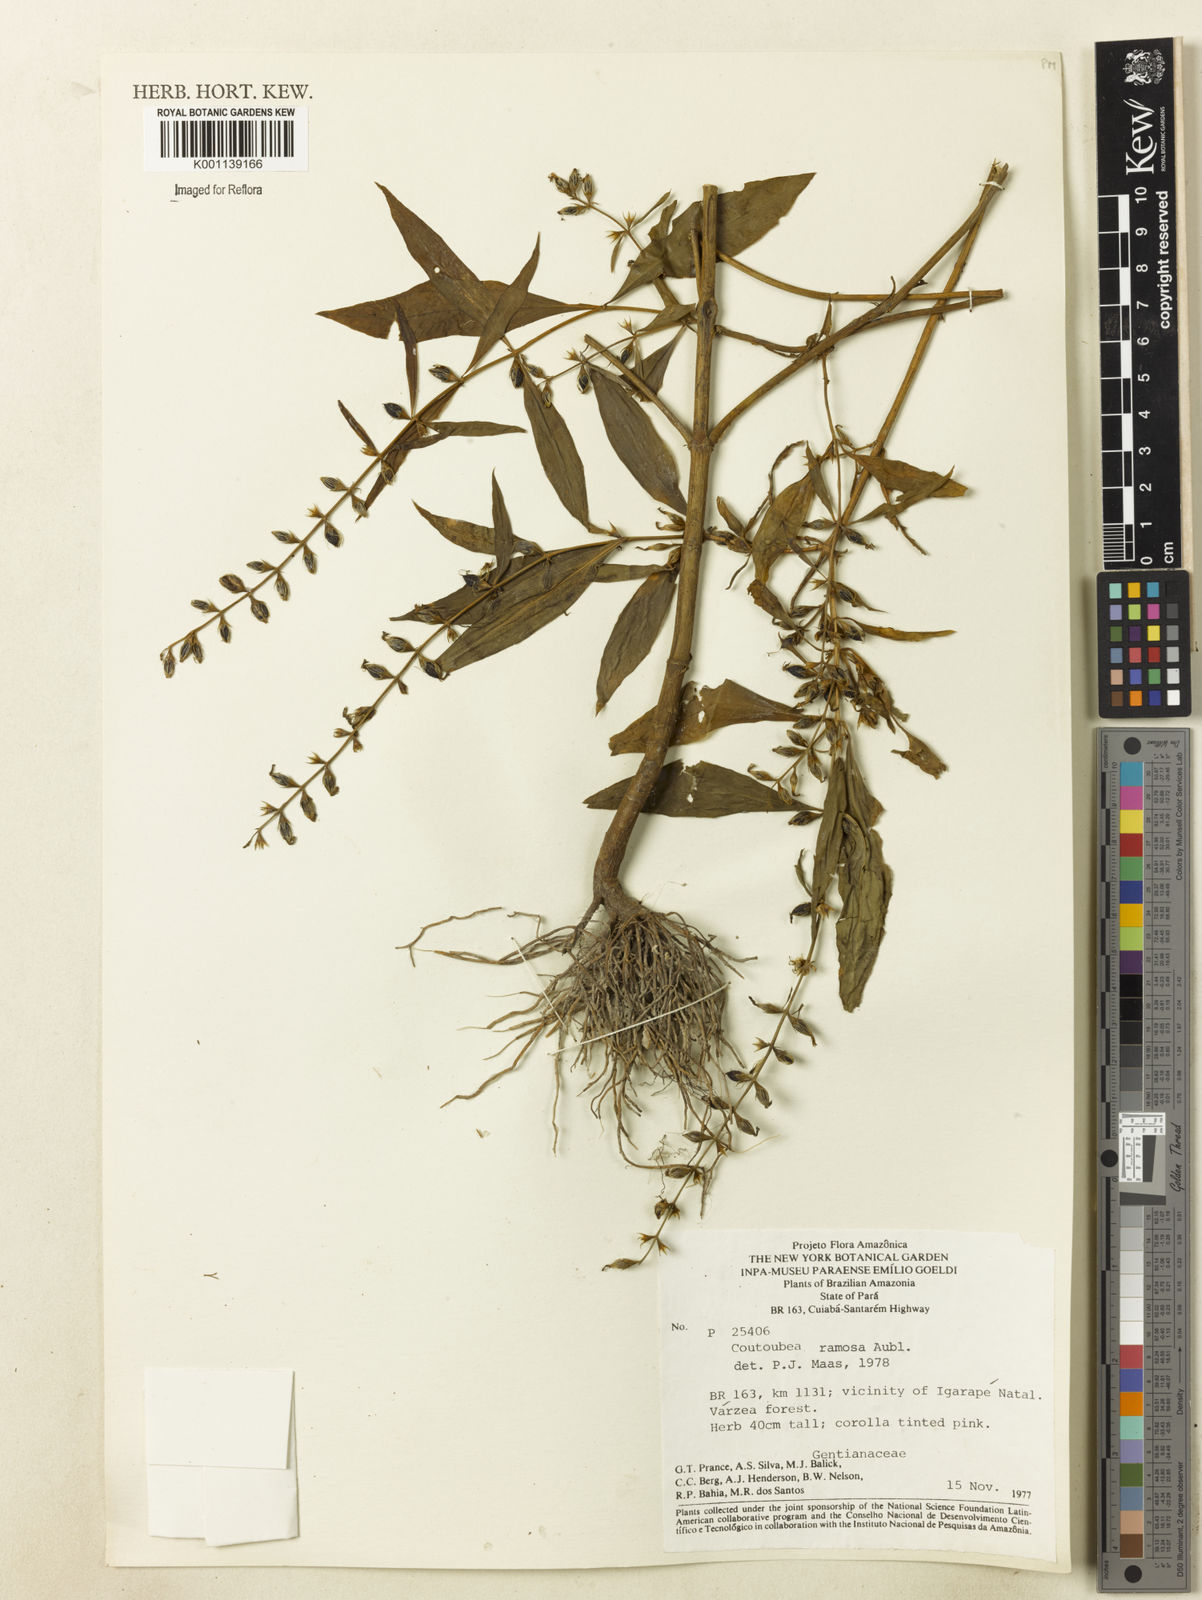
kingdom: Plantae
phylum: Tracheophyta
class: Magnoliopsida
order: Gentianales
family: Gentianaceae
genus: Coutoubea
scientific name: Coutoubea ramosa
